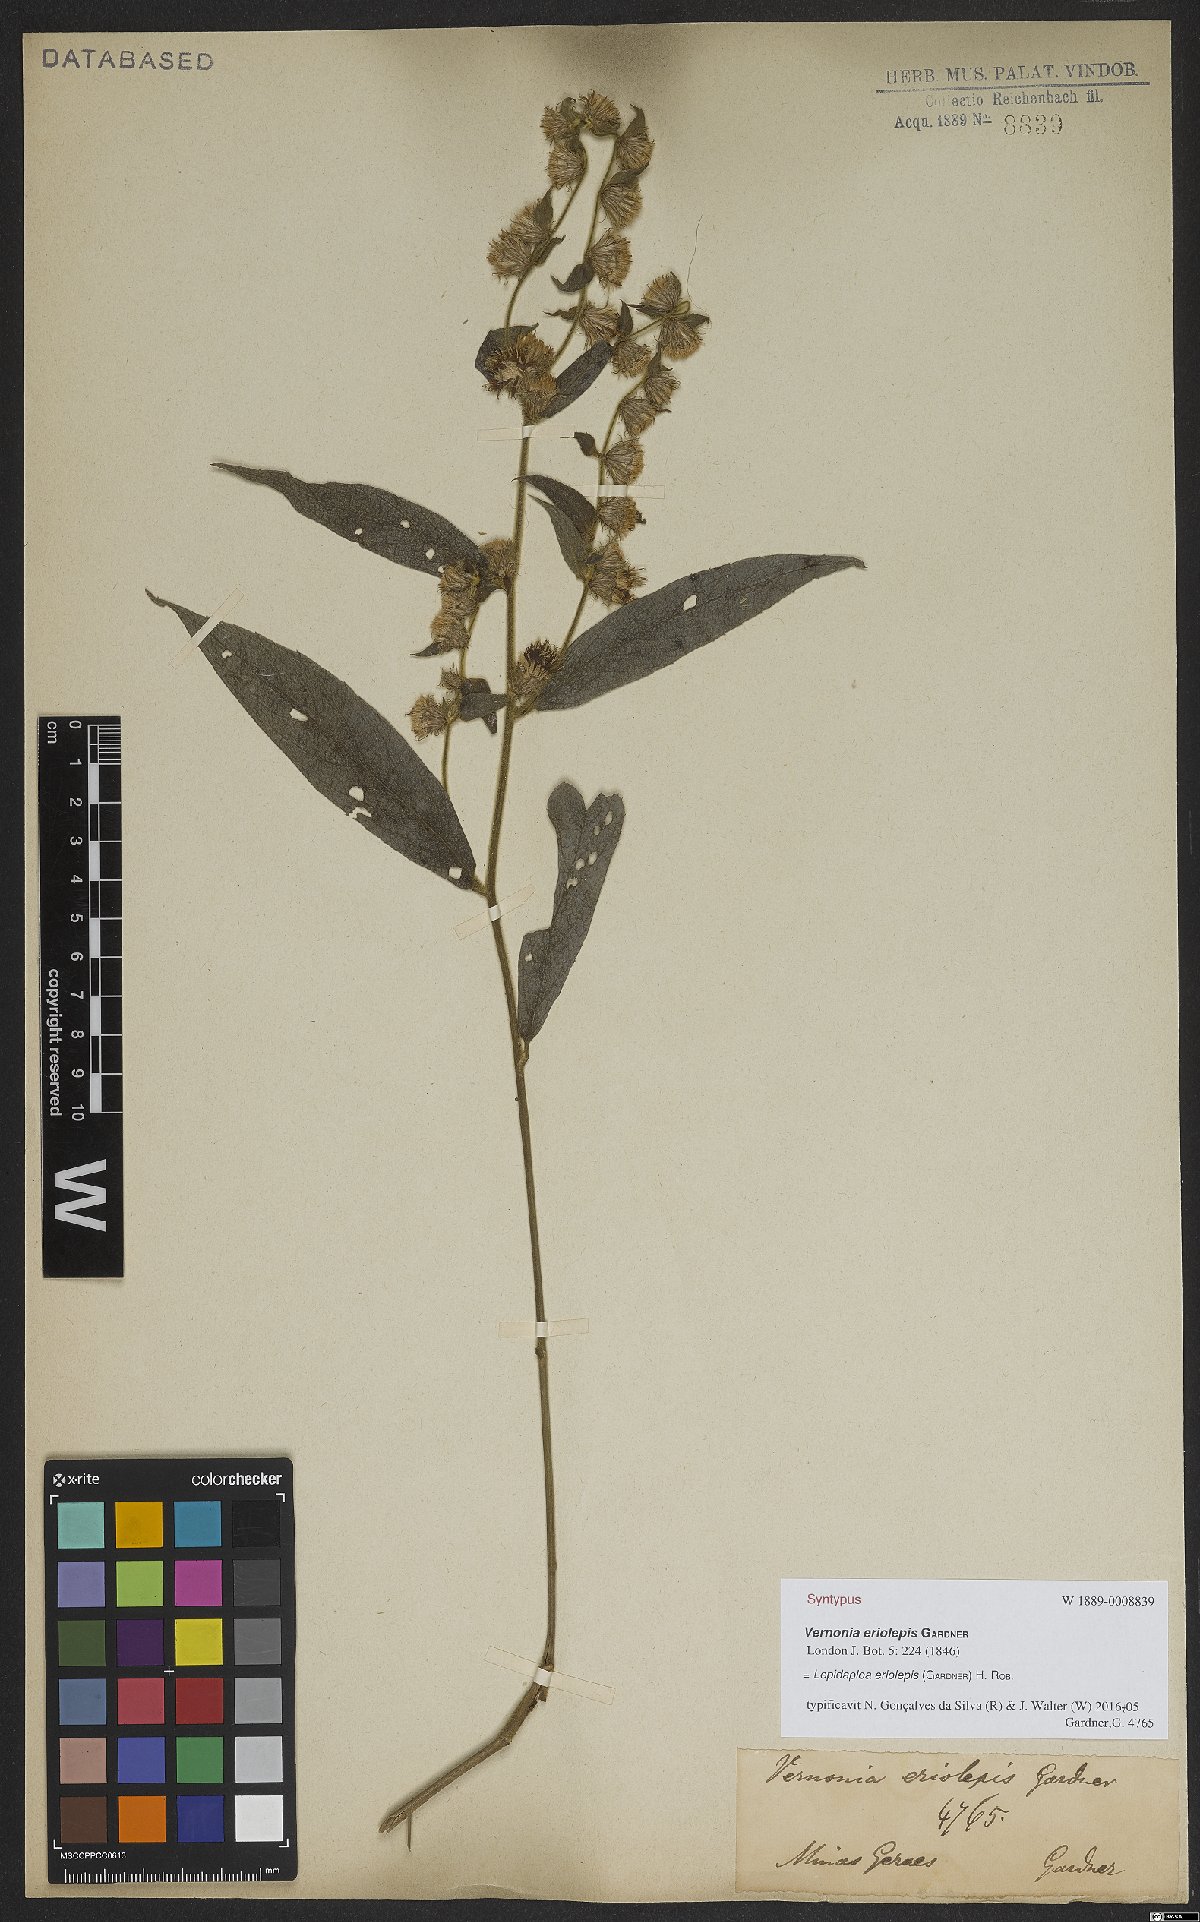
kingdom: Plantae
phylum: Tracheophyta
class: Magnoliopsida
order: Asterales
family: Asteraceae
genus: Lepidaploa
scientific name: Lepidaploa eriolepis
